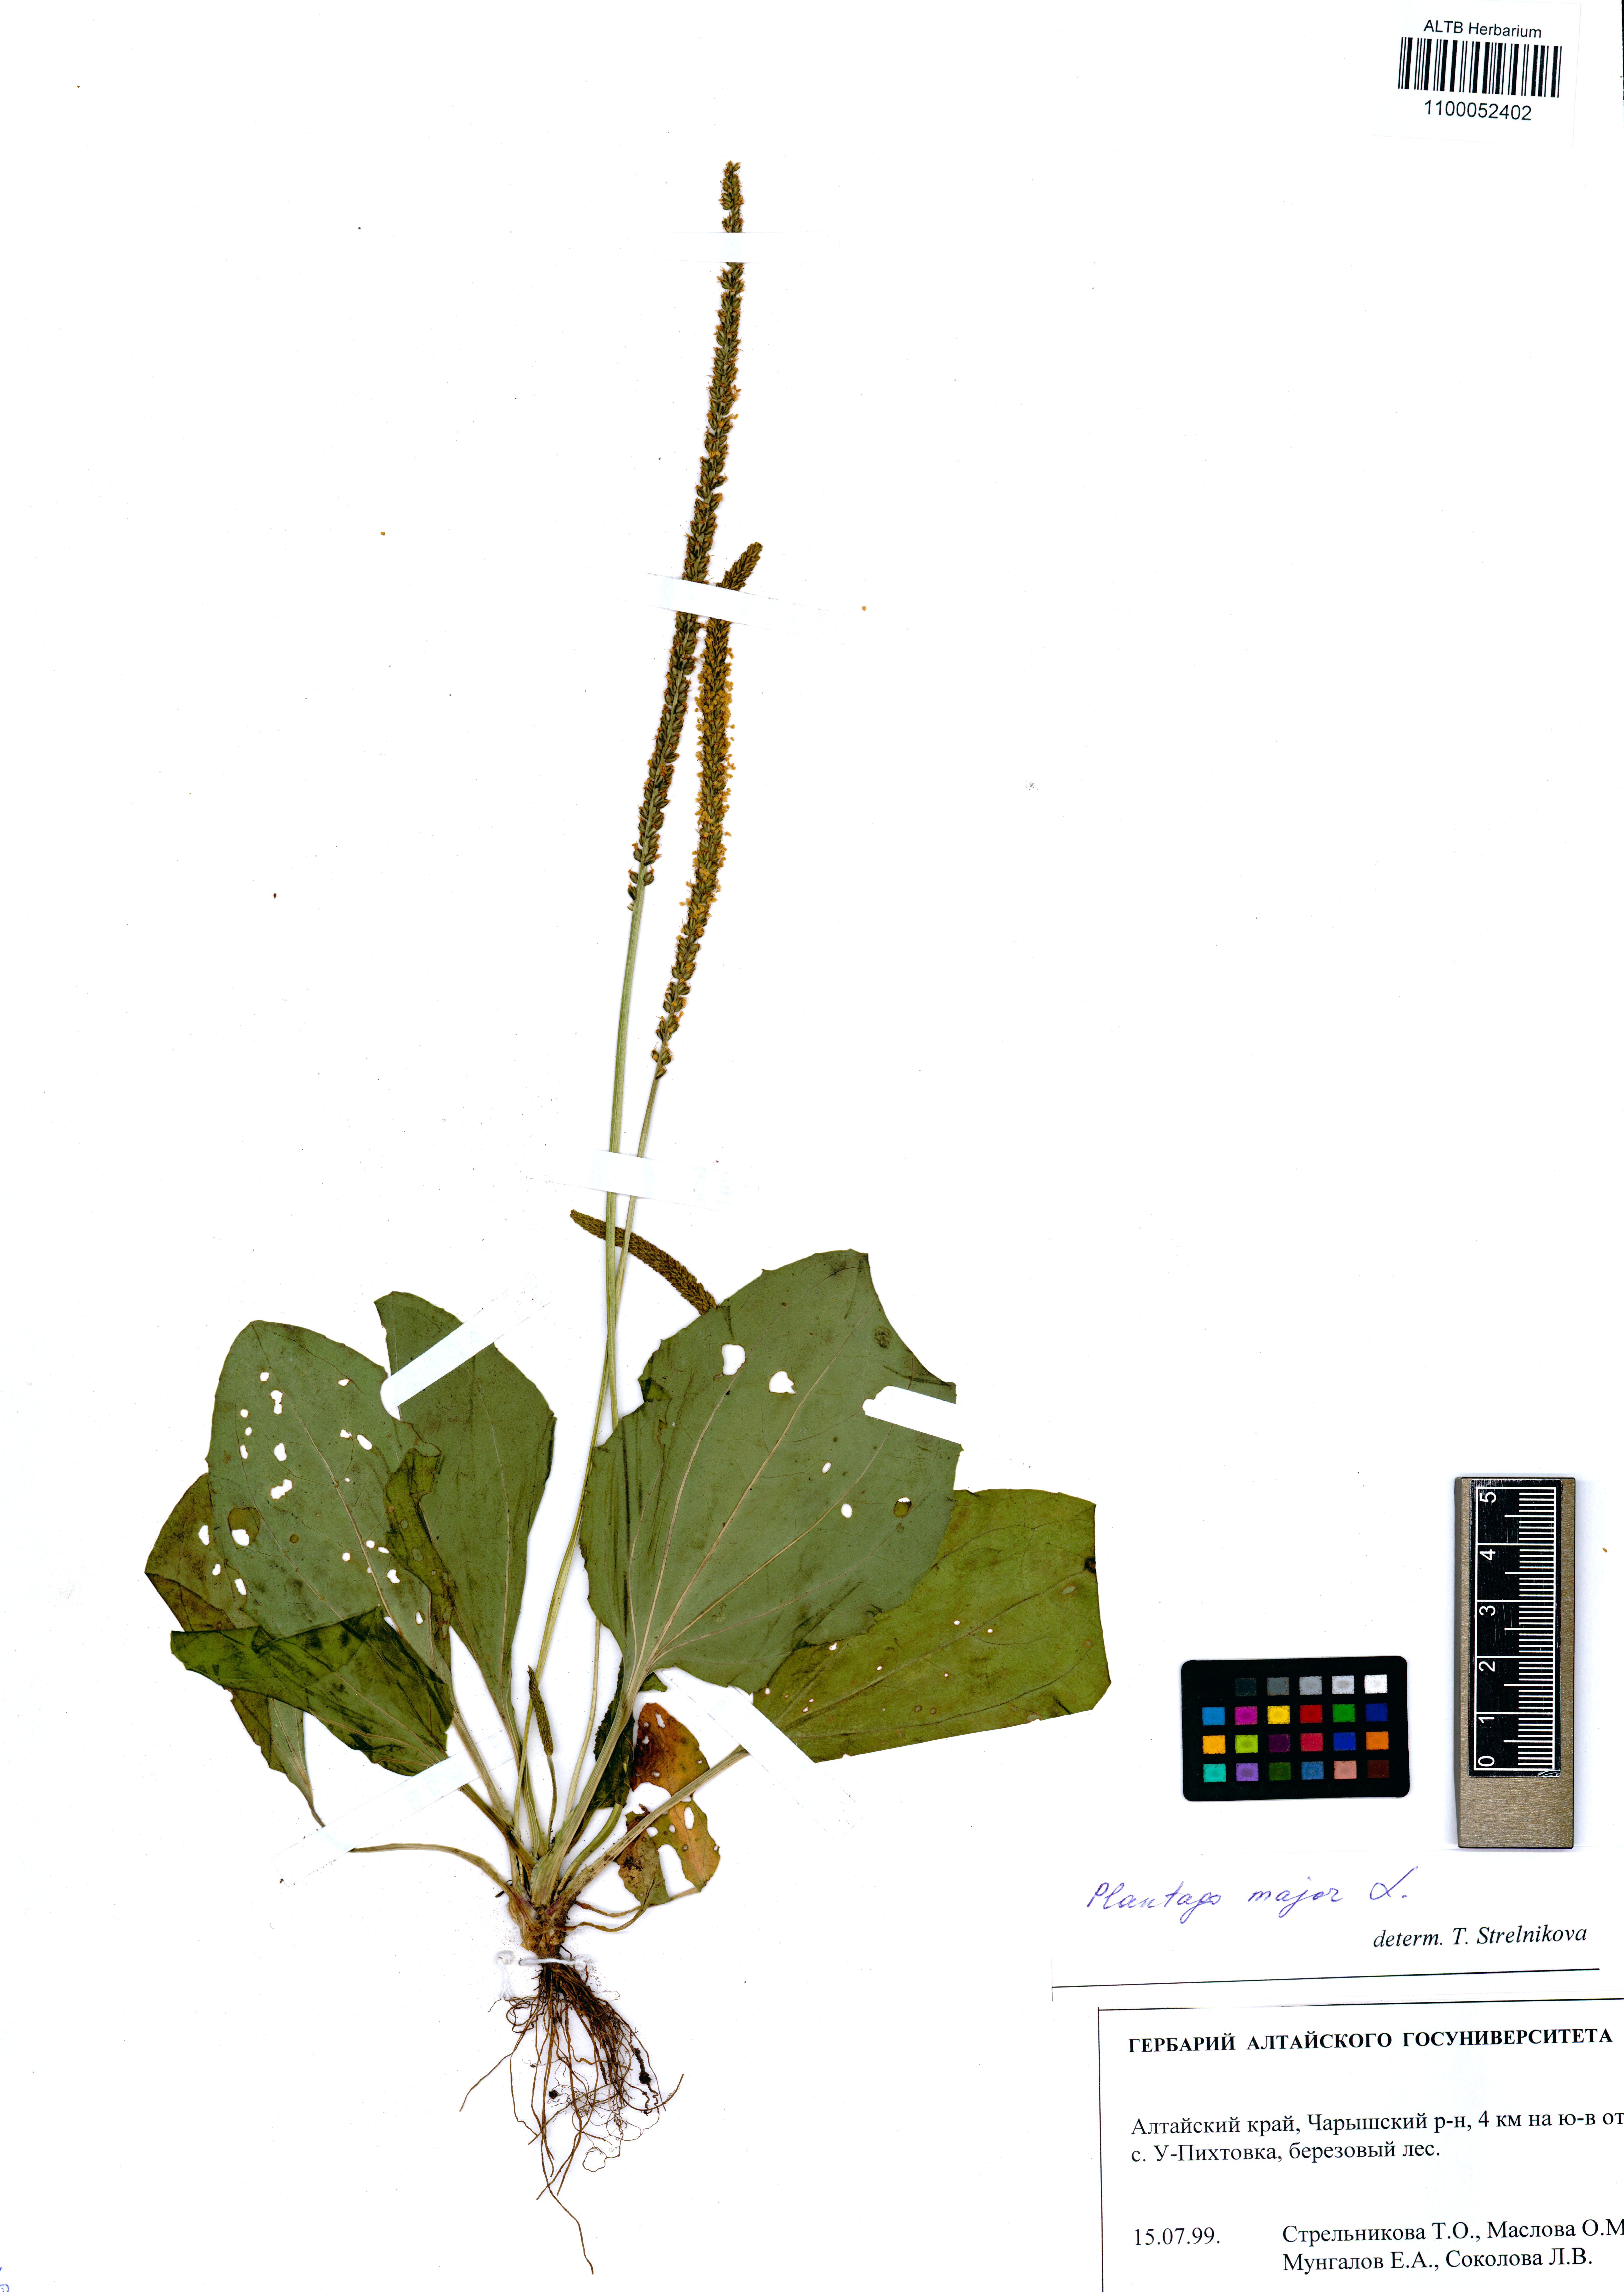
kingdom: Plantae
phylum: Tracheophyta
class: Magnoliopsida
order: Lamiales
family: Plantaginaceae
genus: Plantago
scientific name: Plantago major
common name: Common plantain
